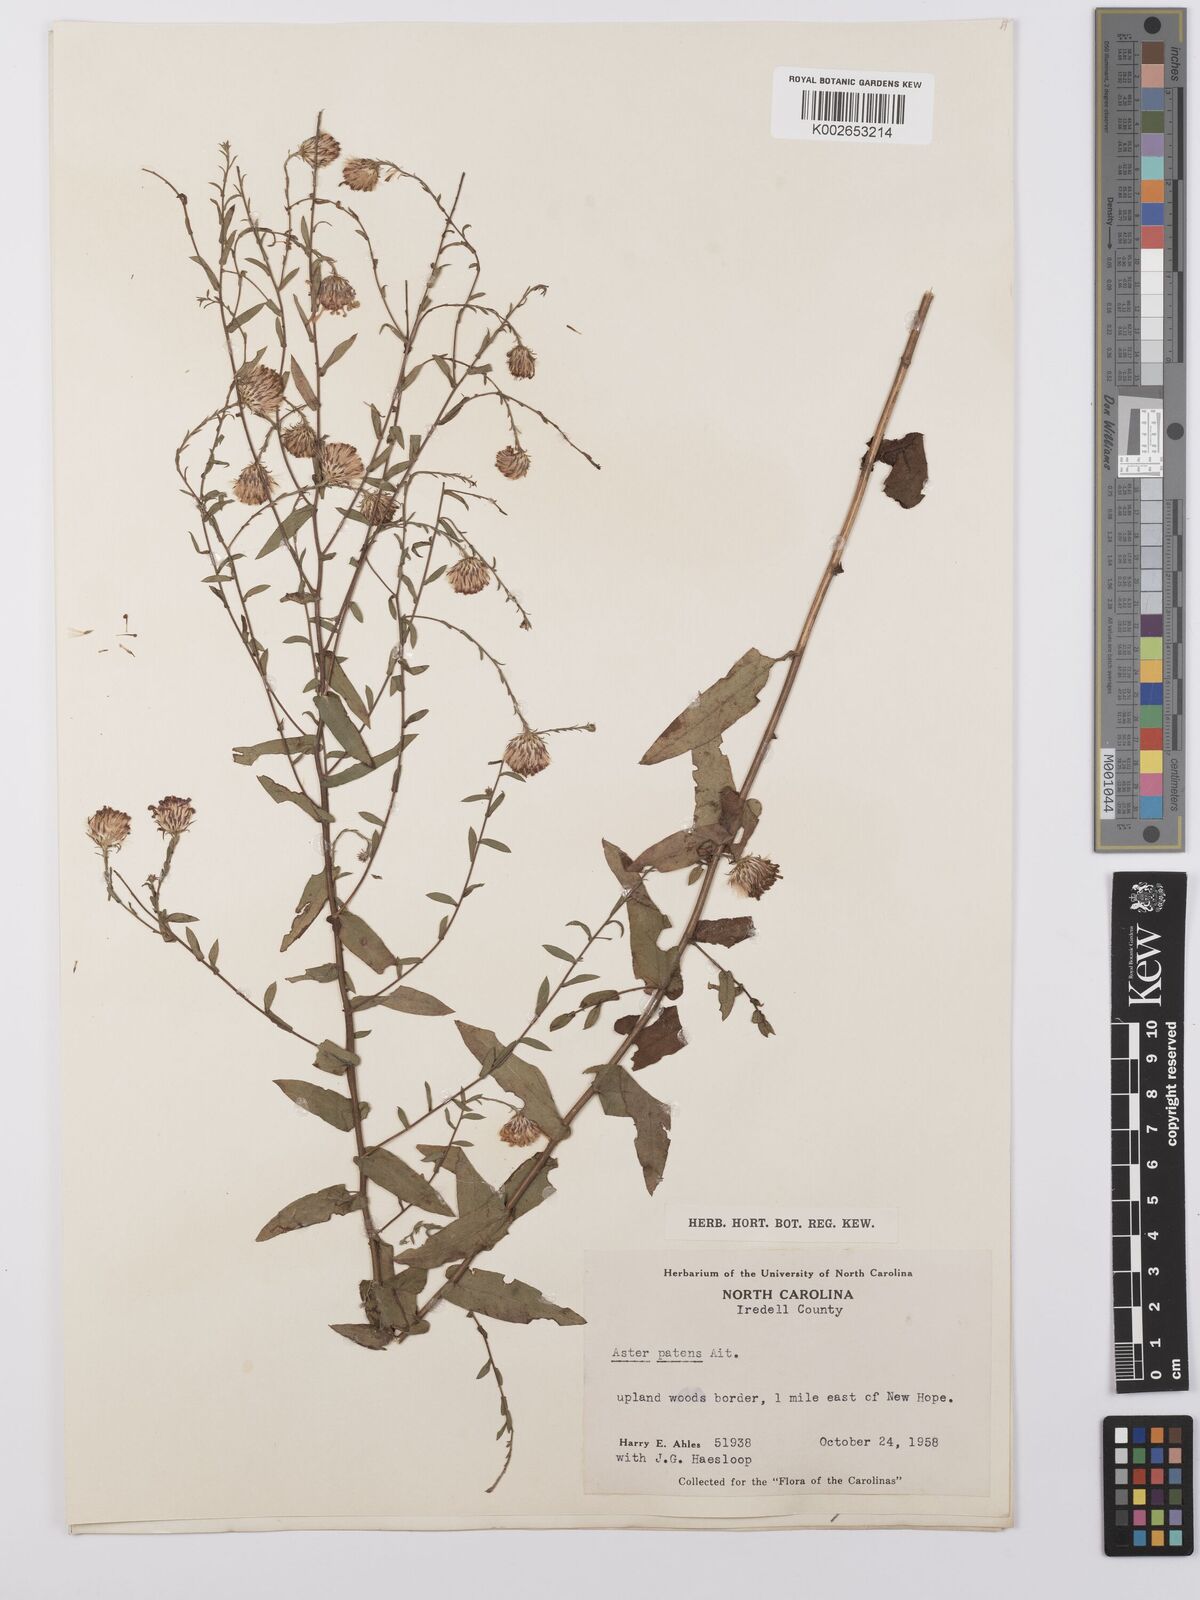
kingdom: Plantae
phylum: Tracheophyta
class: Magnoliopsida
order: Asterales
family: Asteraceae
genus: Symphyotrichum
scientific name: Symphyotrichum patens
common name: Late purple aster
